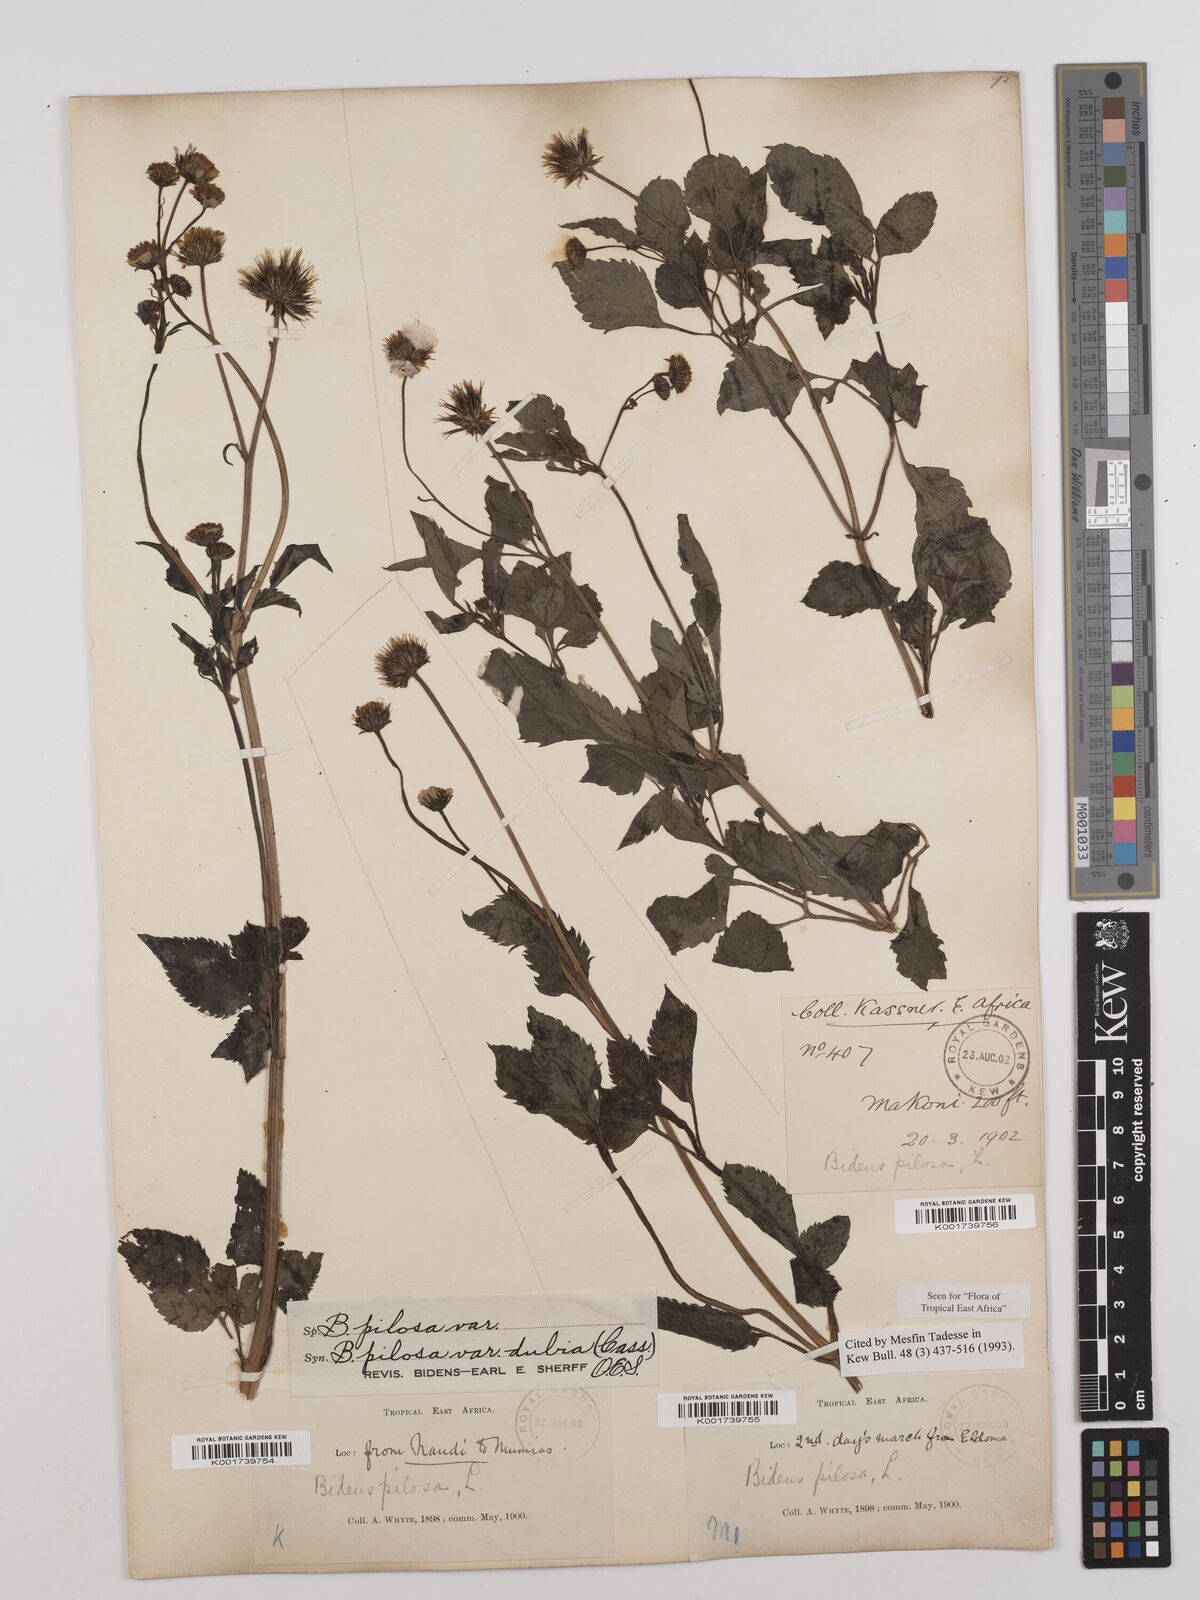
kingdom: Plantae
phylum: Tracheophyta
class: Magnoliopsida
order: Asterales
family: Asteraceae
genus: Bidens
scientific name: Bidens pilosa
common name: Black-jack
